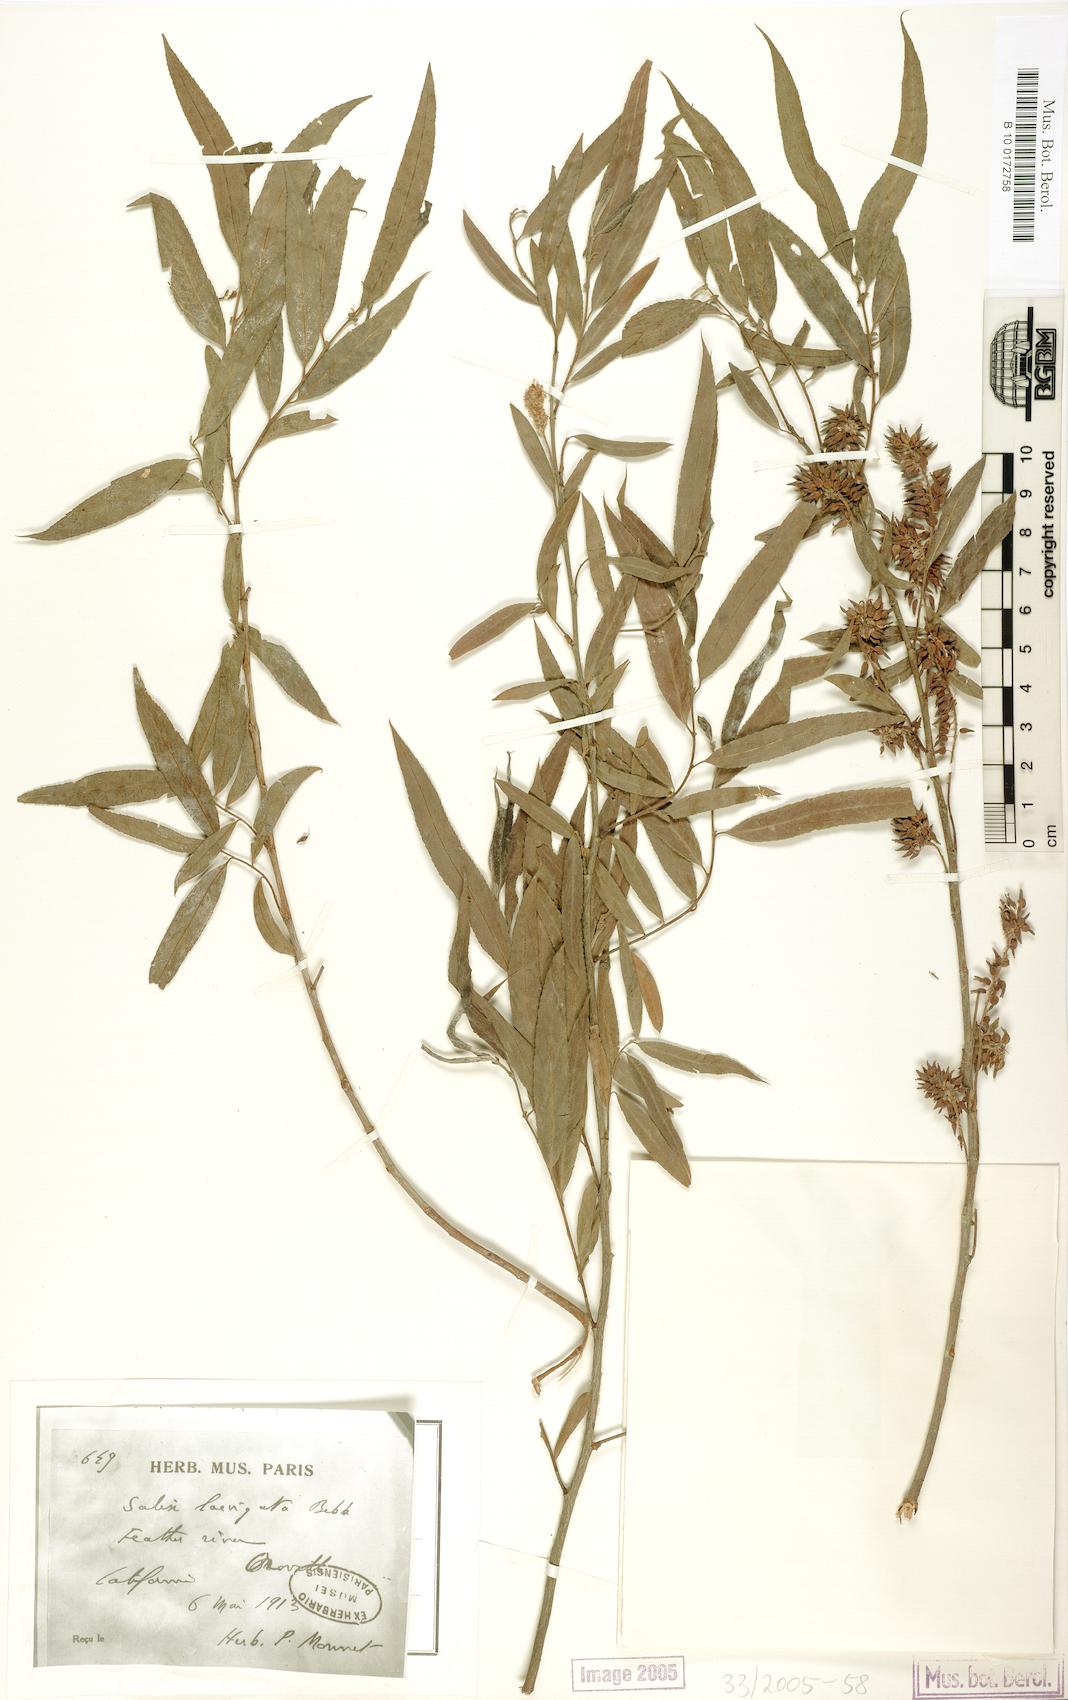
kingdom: Plantae
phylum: Tracheophyta
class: Magnoliopsida
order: Malpighiales
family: Salicaceae
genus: Salix
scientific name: Salix laevigata
